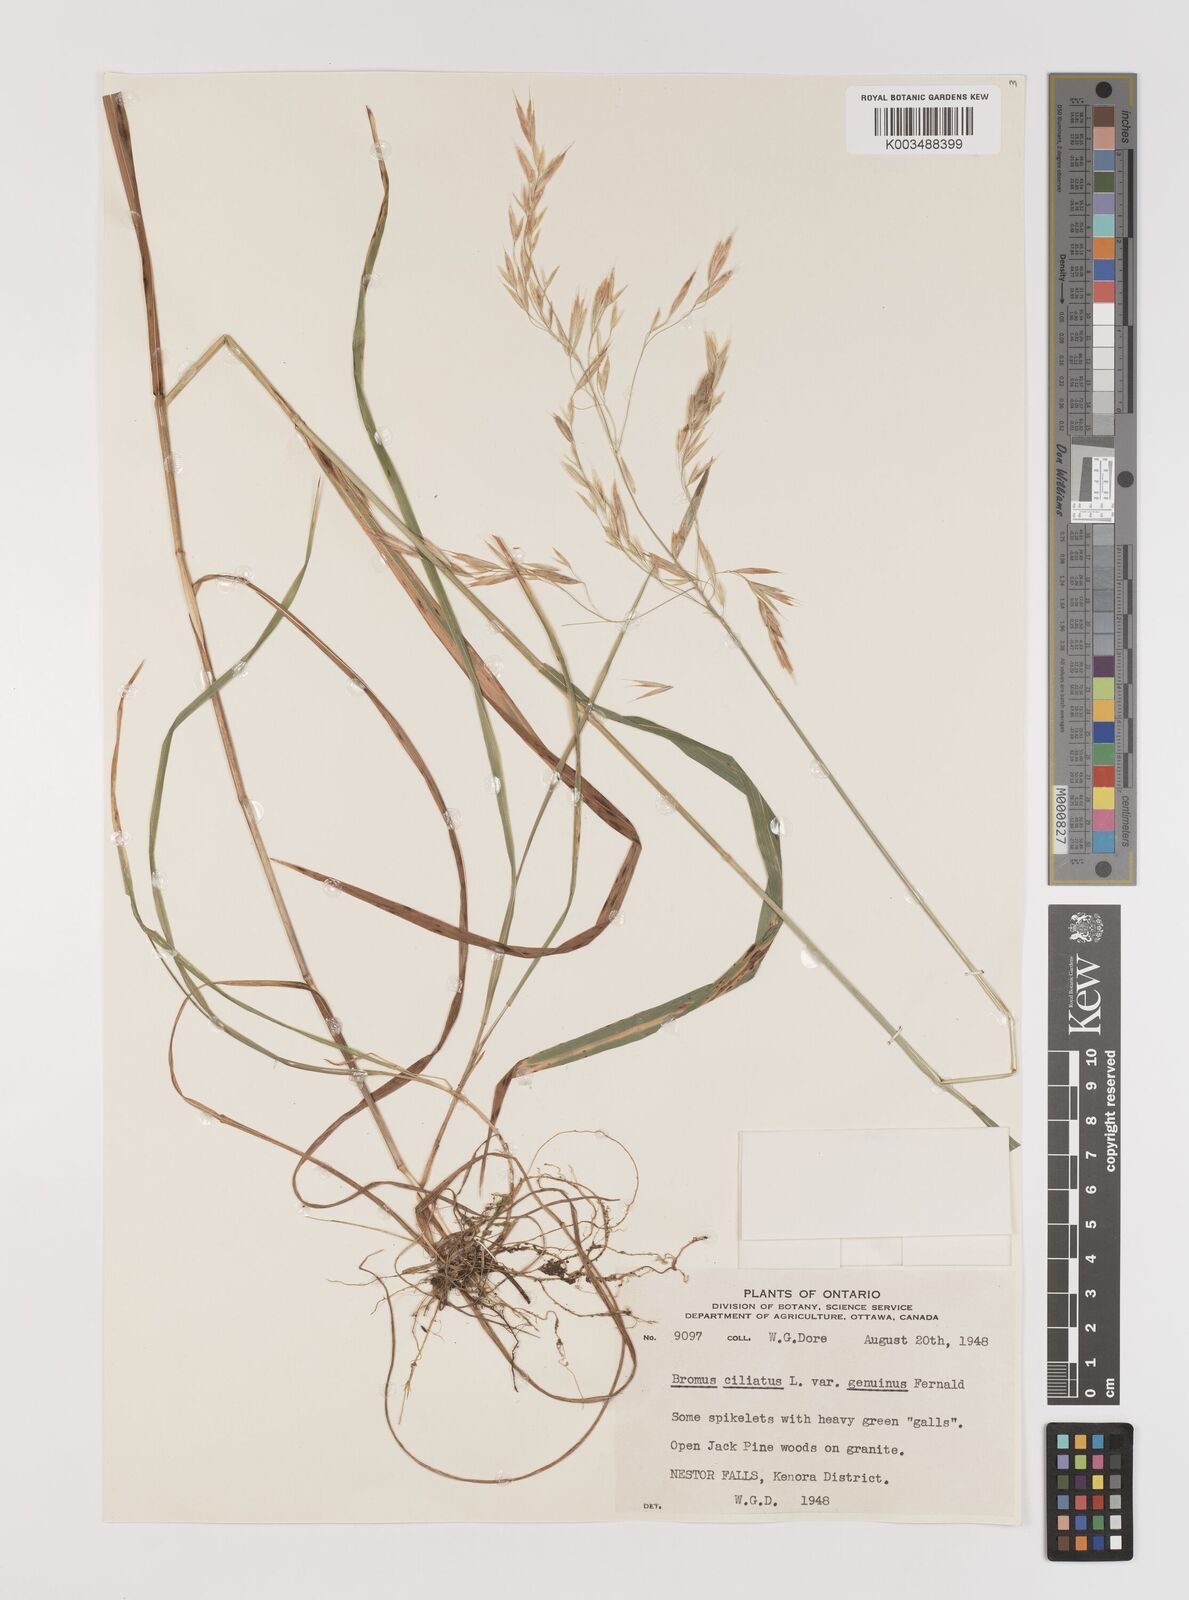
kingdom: Plantae
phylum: Tracheophyta
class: Liliopsida
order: Poales
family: Poaceae
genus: Bromus
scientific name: Bromus ciliatus
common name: Fringe brome
